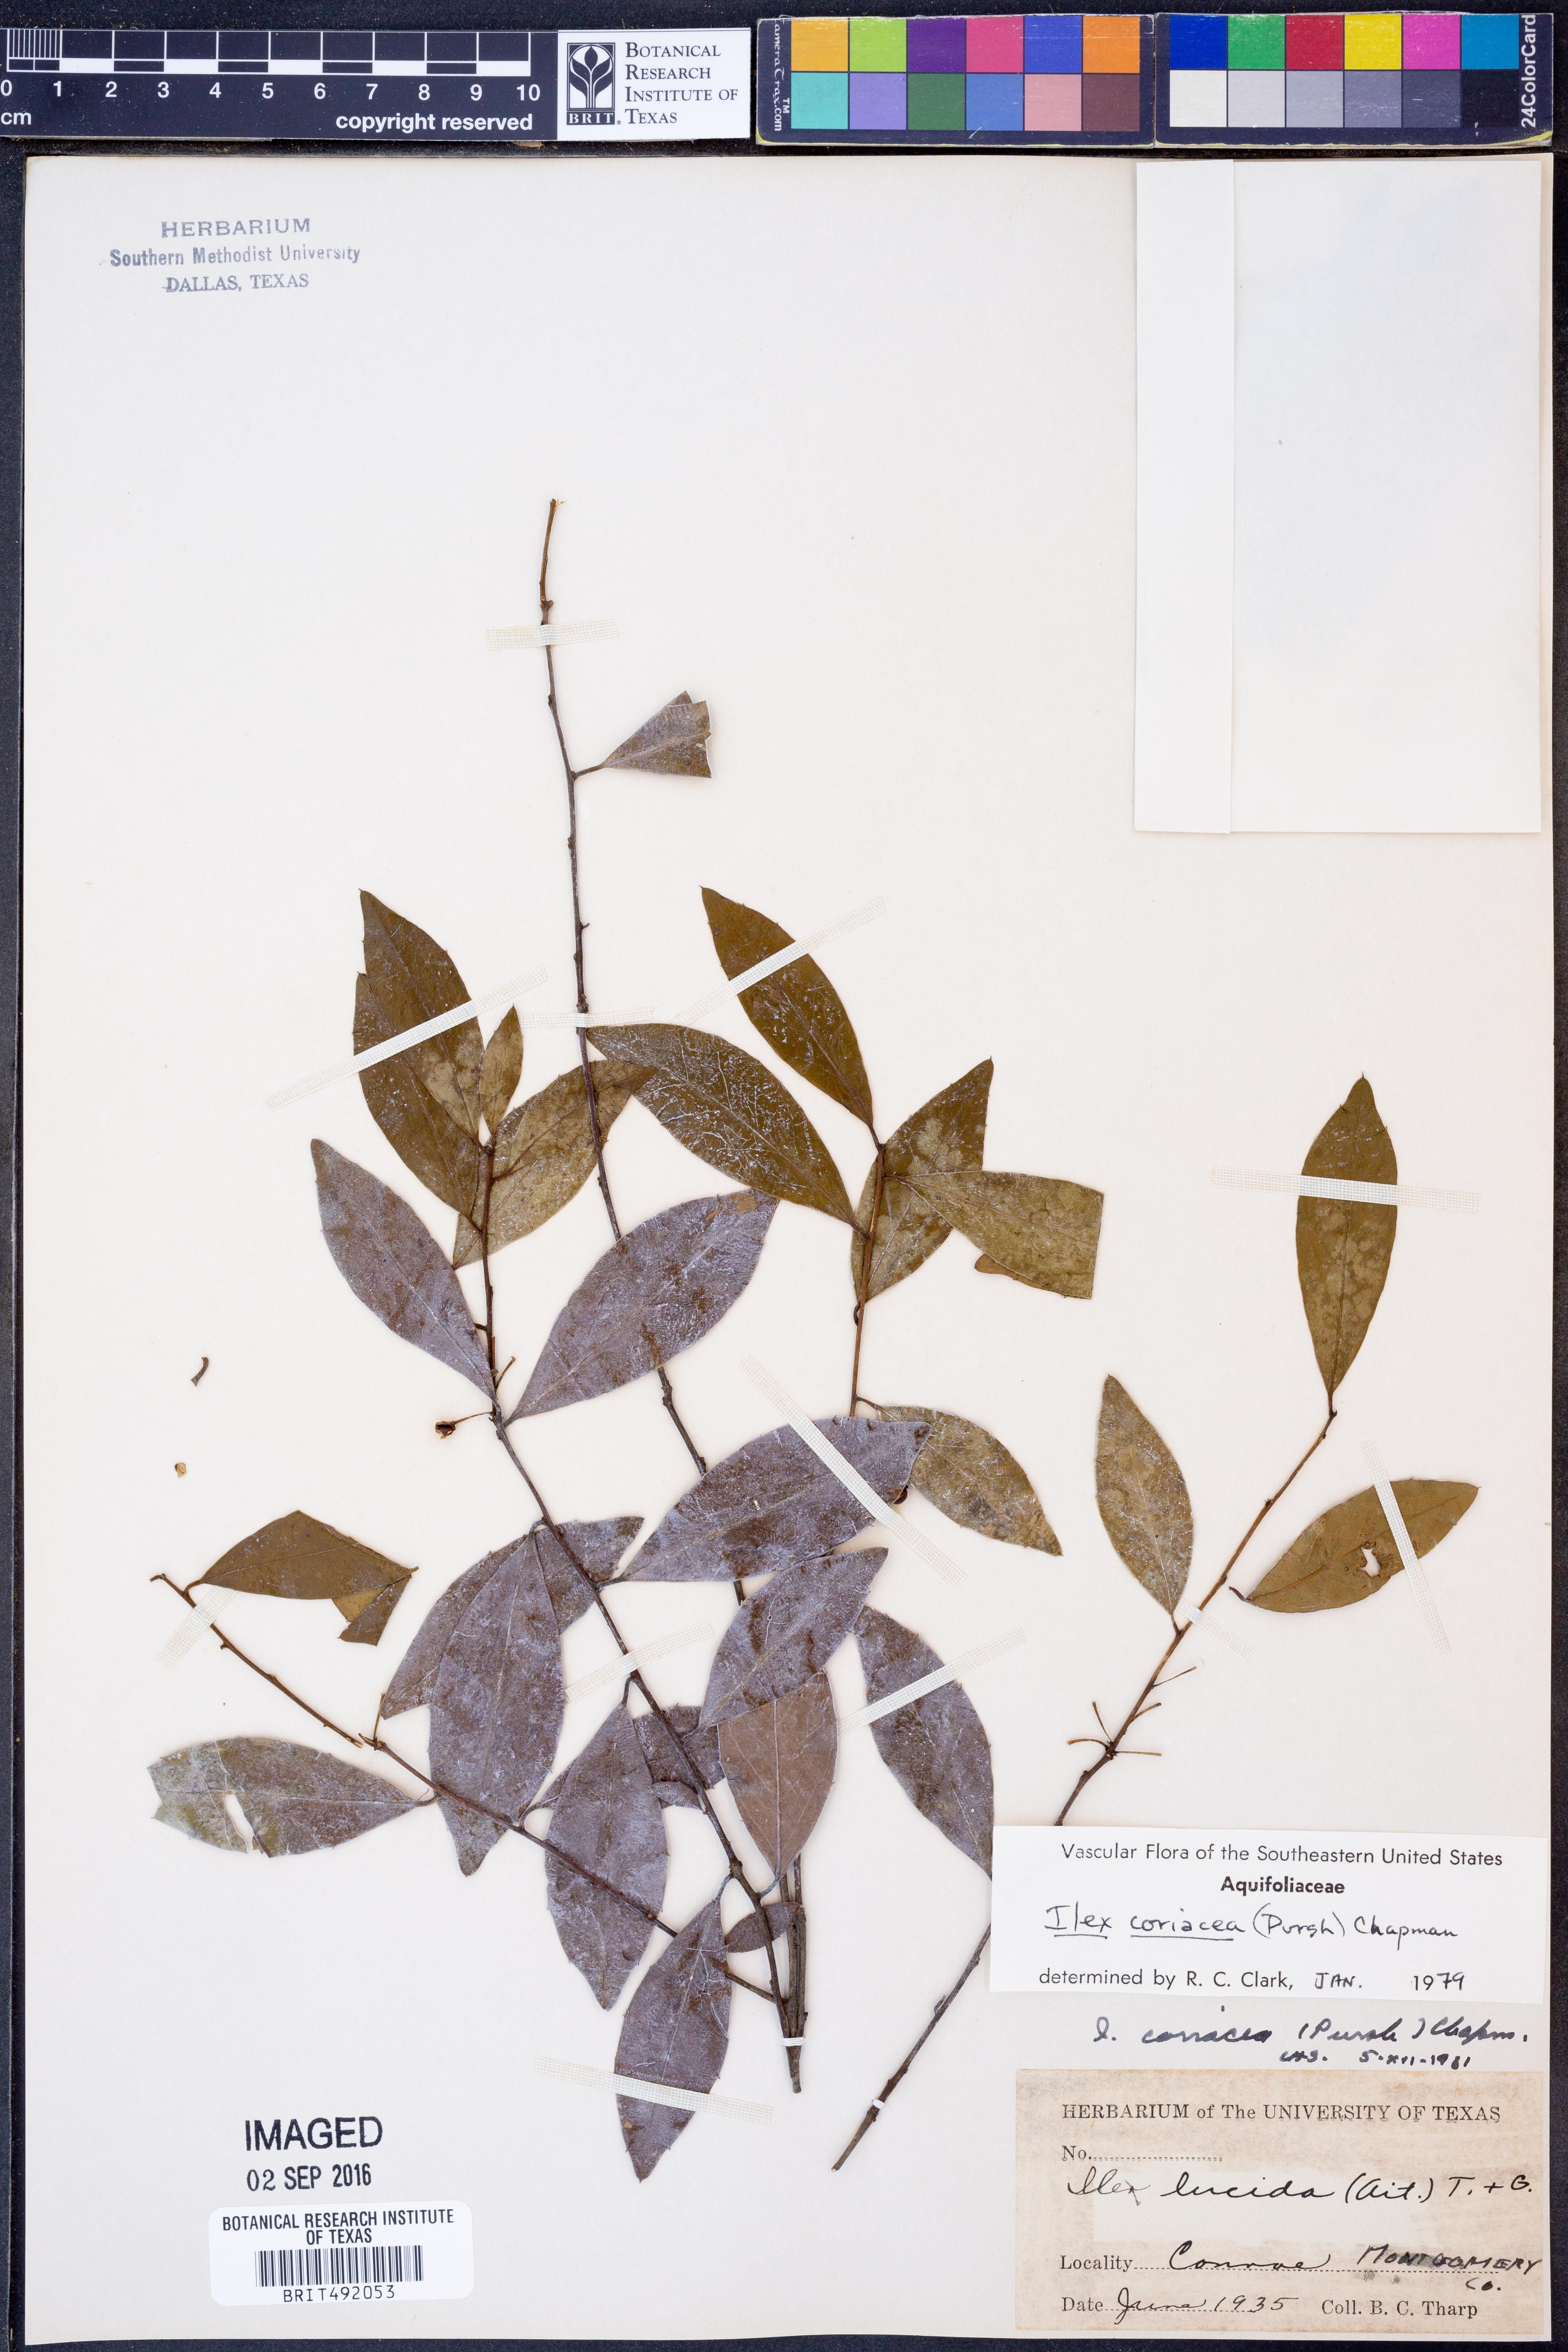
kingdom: Plantae
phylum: Tracheophyta
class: Magnoliopsida
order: Aquifoliales
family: Aquifoliaceae
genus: Ilex
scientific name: Ilex coriacea
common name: Sweet gallberry
